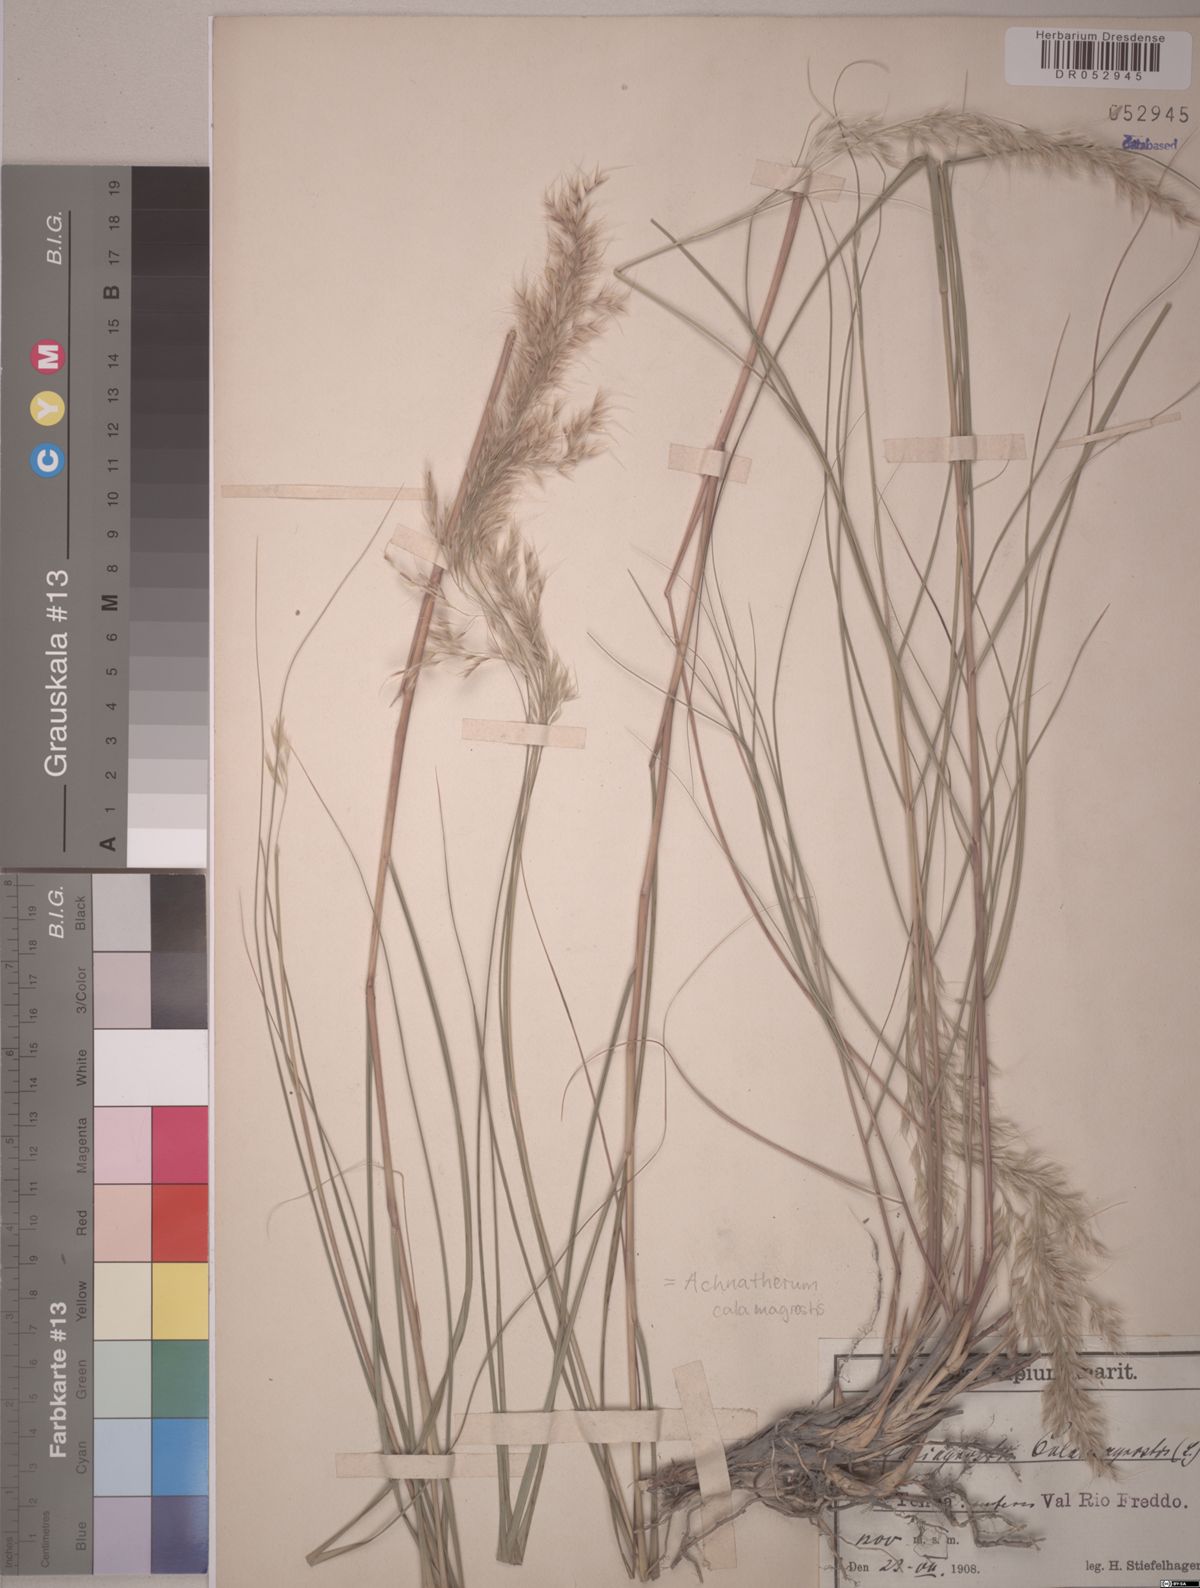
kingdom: Plantae
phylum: Tracheophyta
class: Liliopsida
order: Poales
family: Poaceae
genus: Achnatherum
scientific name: Achnatherum calamagrostis
